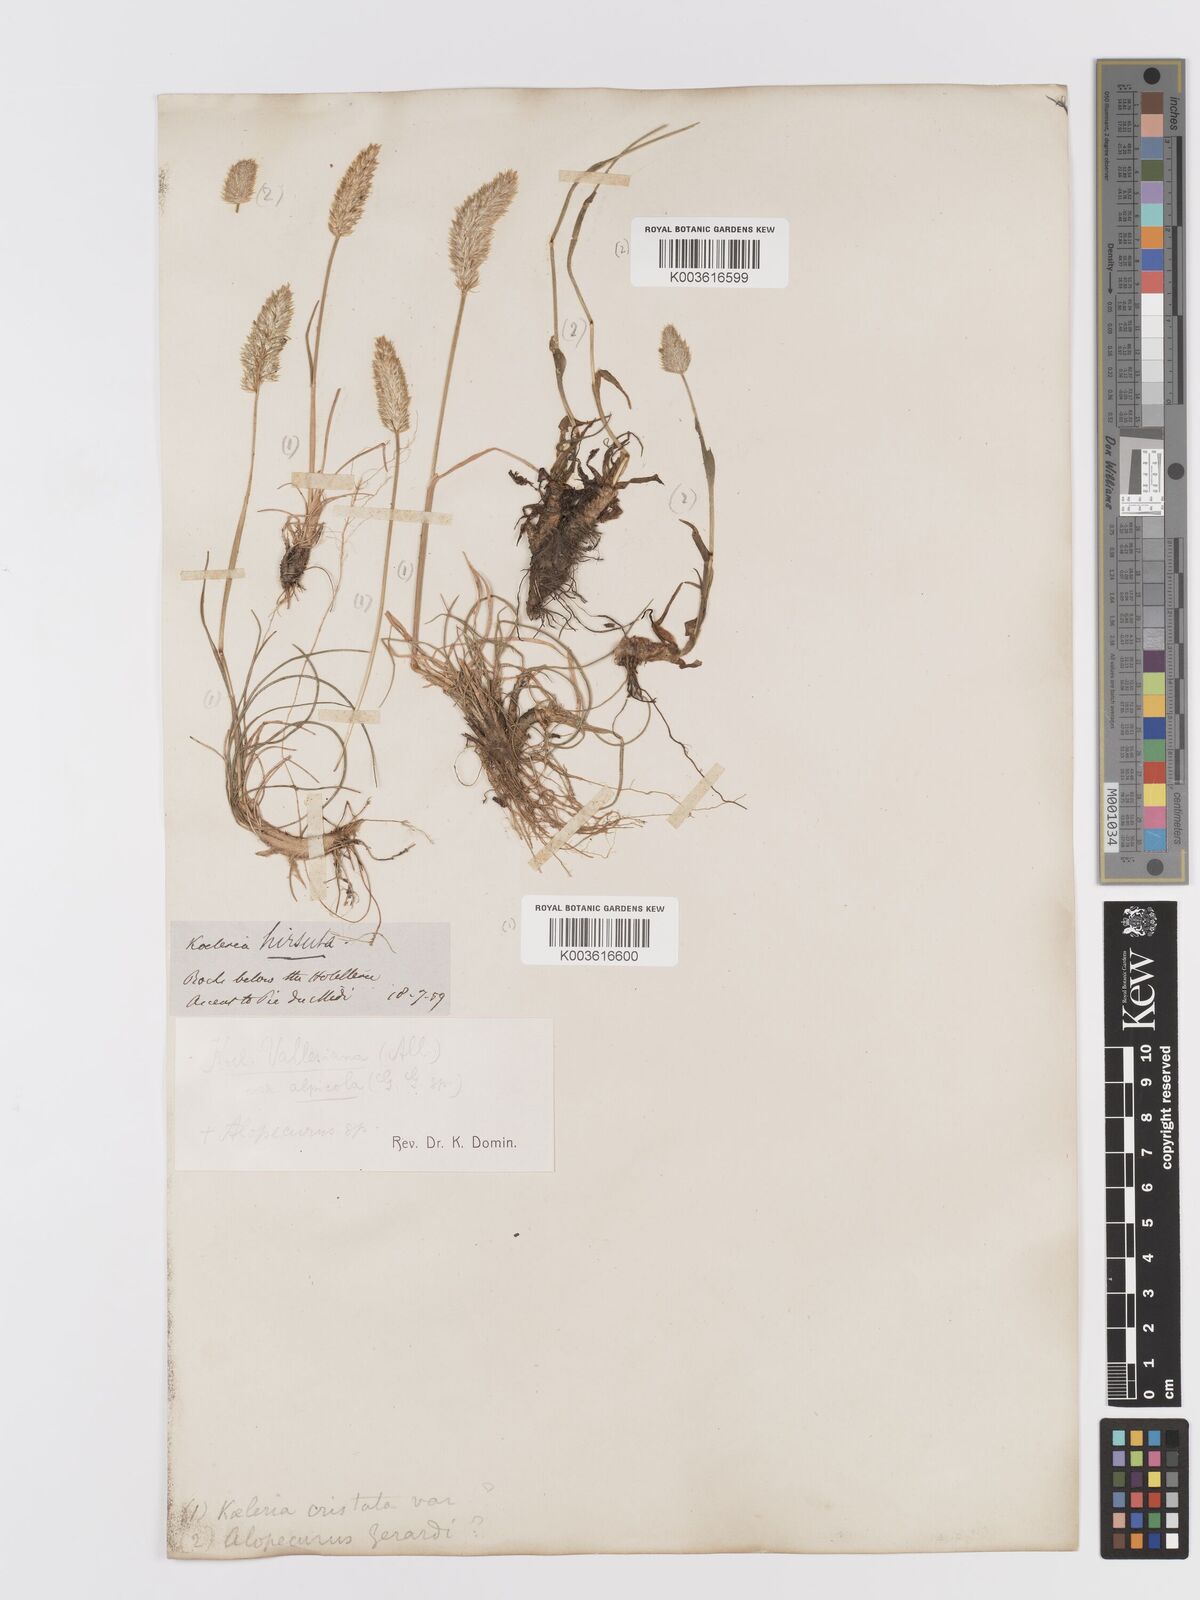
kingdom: Plantae
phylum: Tracheophyta
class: Liliopsida
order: Poales
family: Poaceae
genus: Koeleria
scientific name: Koeleria vallesiana
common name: Somerset hair-grass
